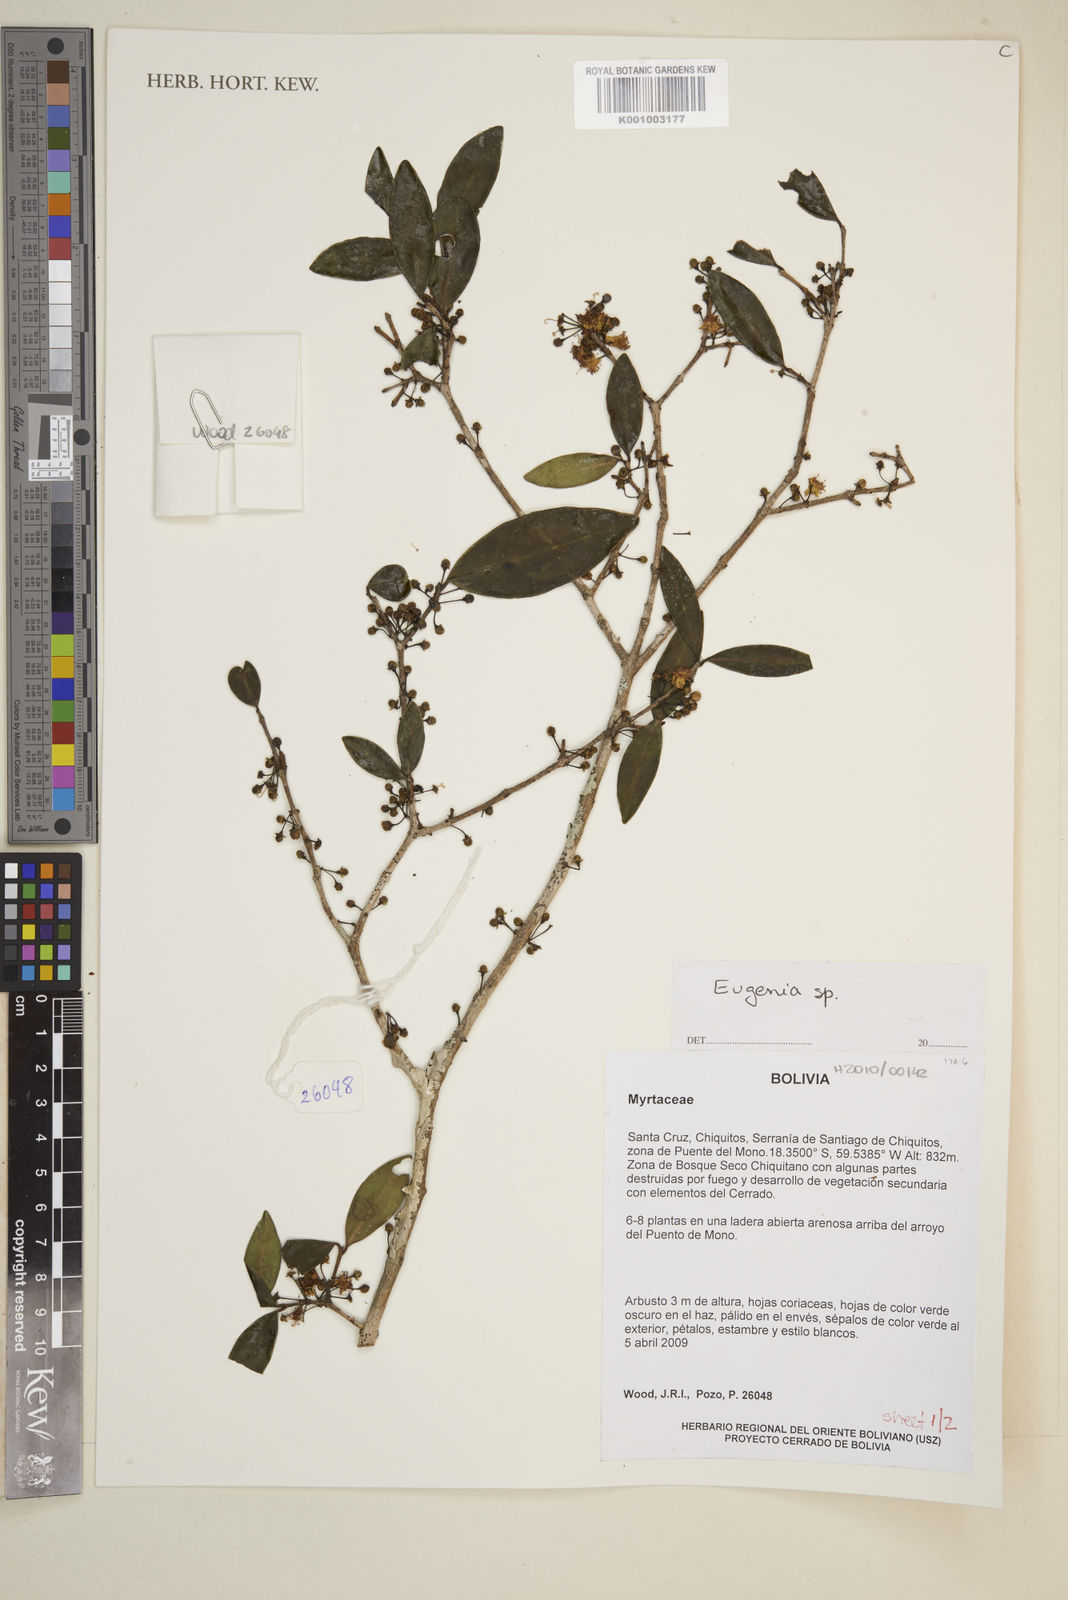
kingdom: Plantae
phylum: Tracheophyta
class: Magnoliopsida
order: Myrtales
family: Myrtaceae
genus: Eugenia
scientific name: Eugenia
